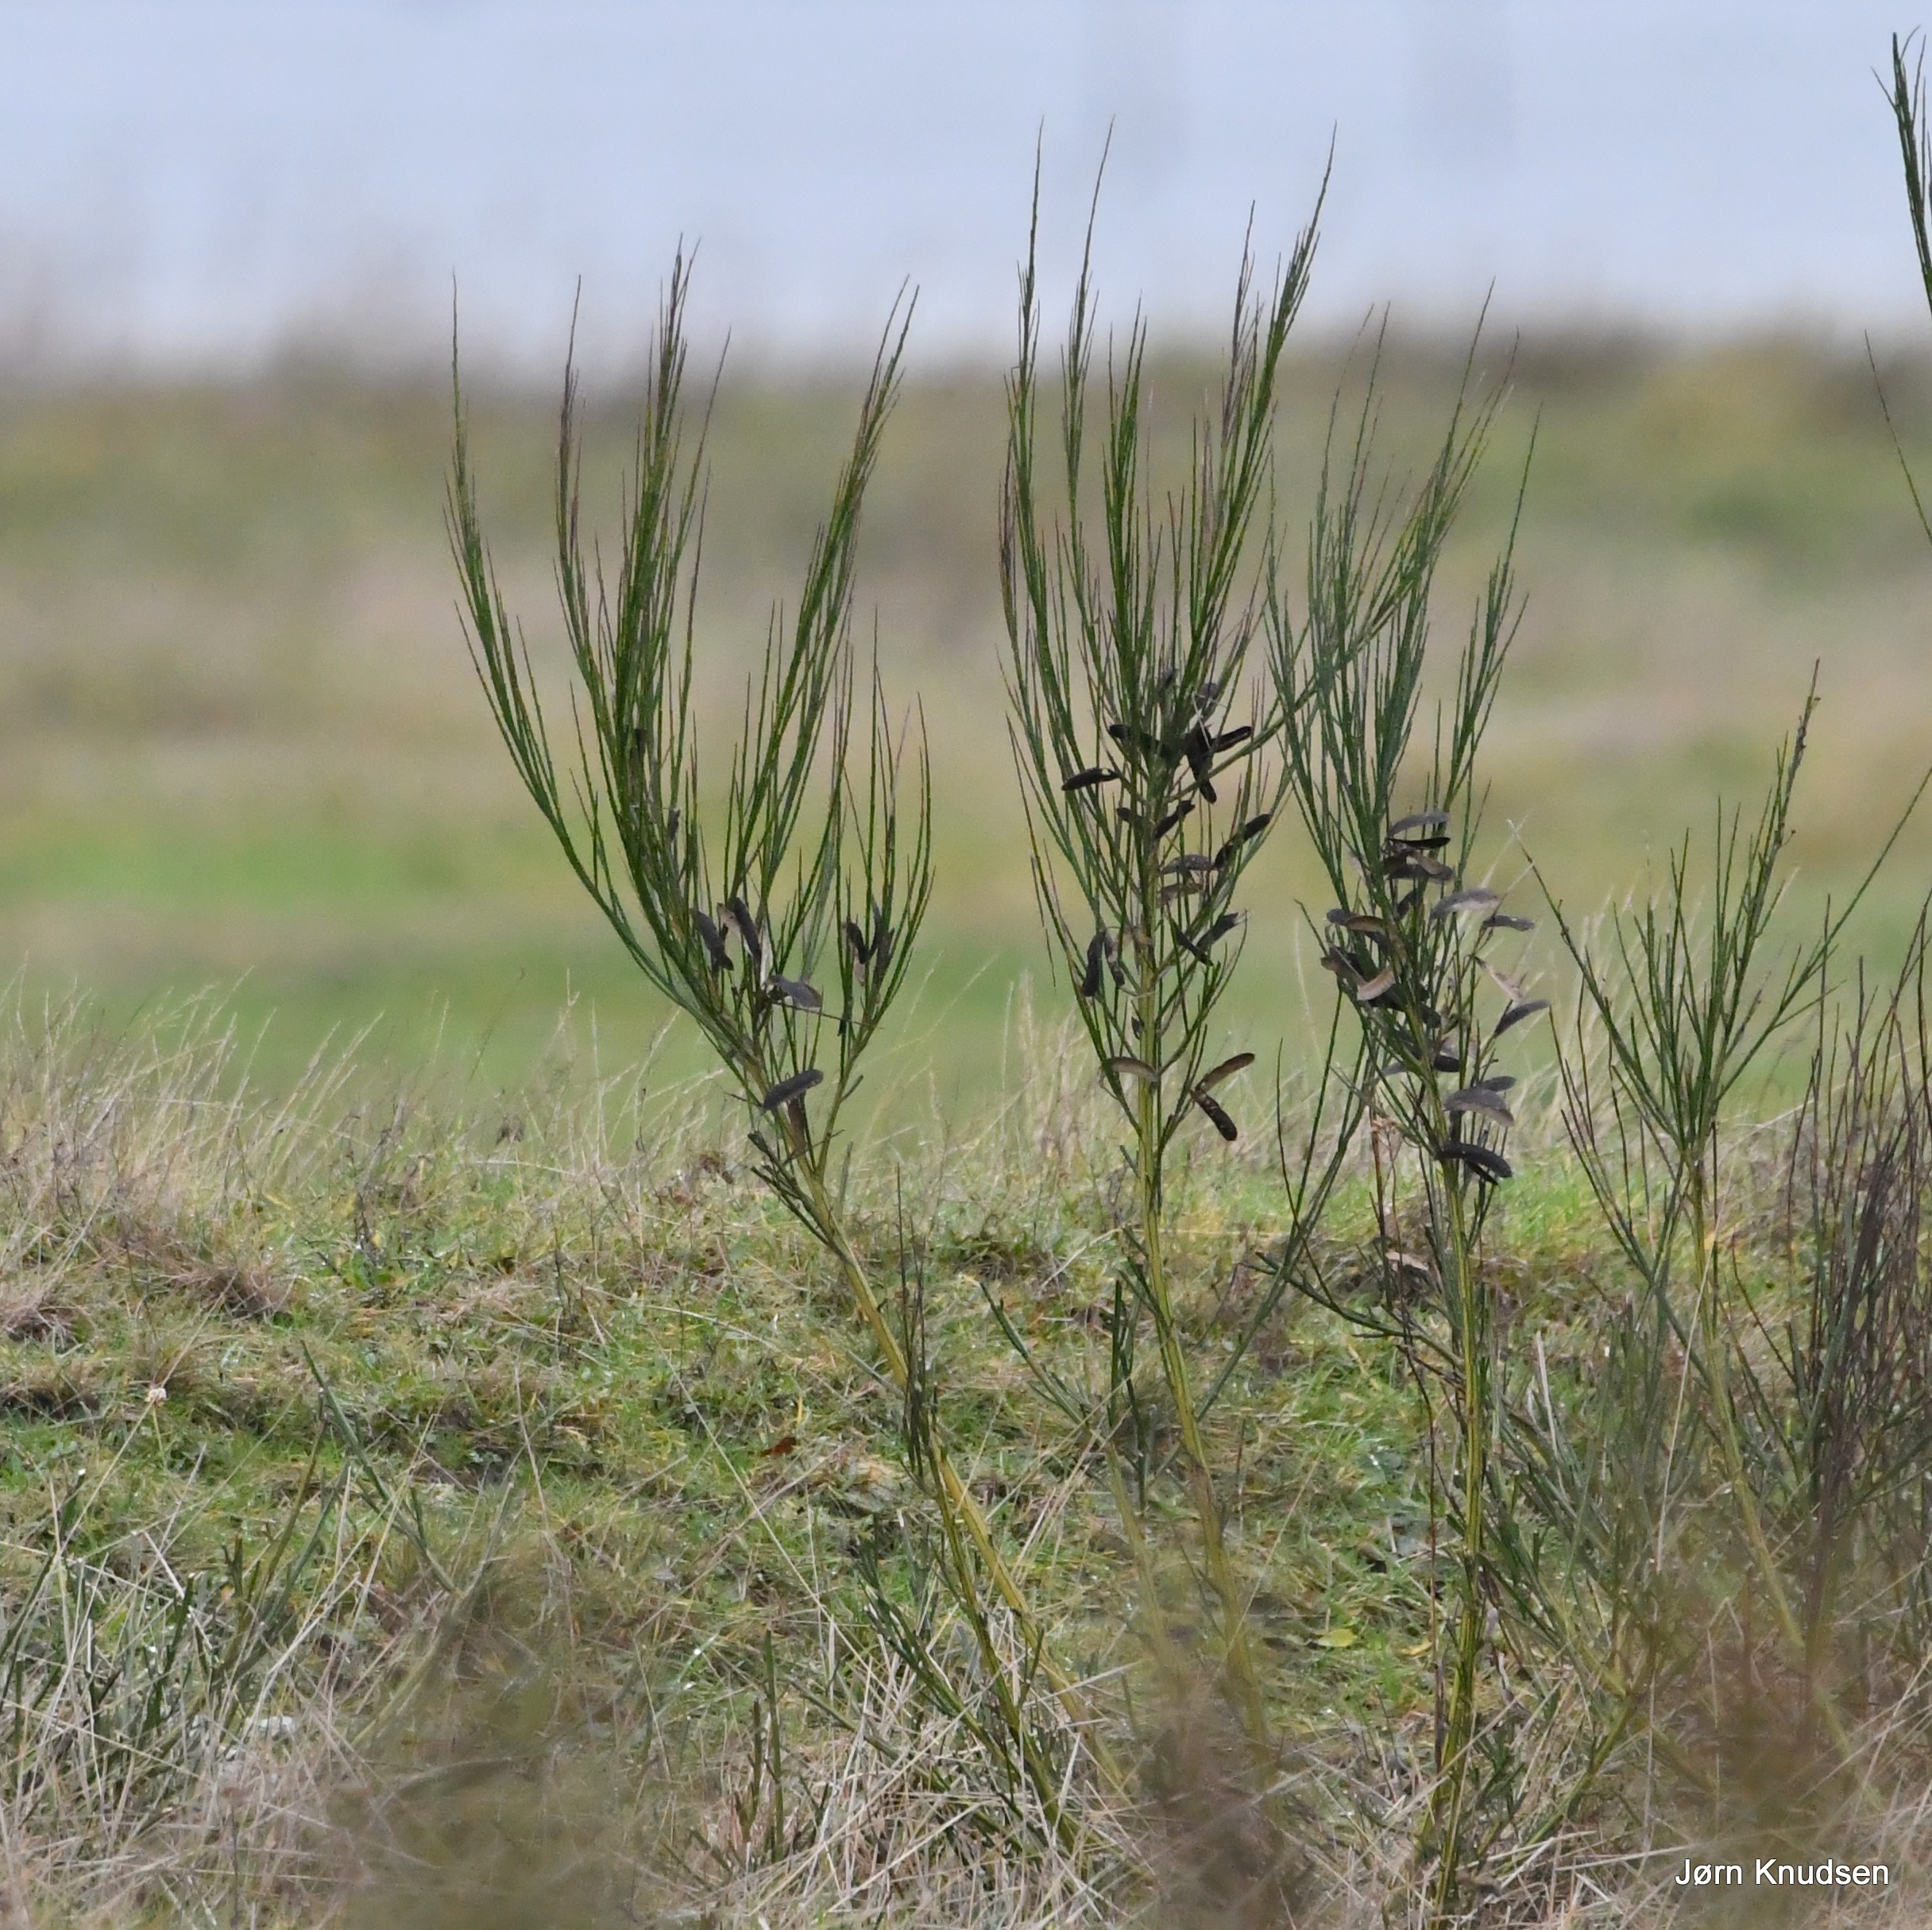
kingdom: Plantae
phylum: Tracheophyta
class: Magnoliopsida
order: Fabales
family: Fabaceae
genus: Cytisus
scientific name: Cytisus scoparius
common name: Almindelig gyvel
